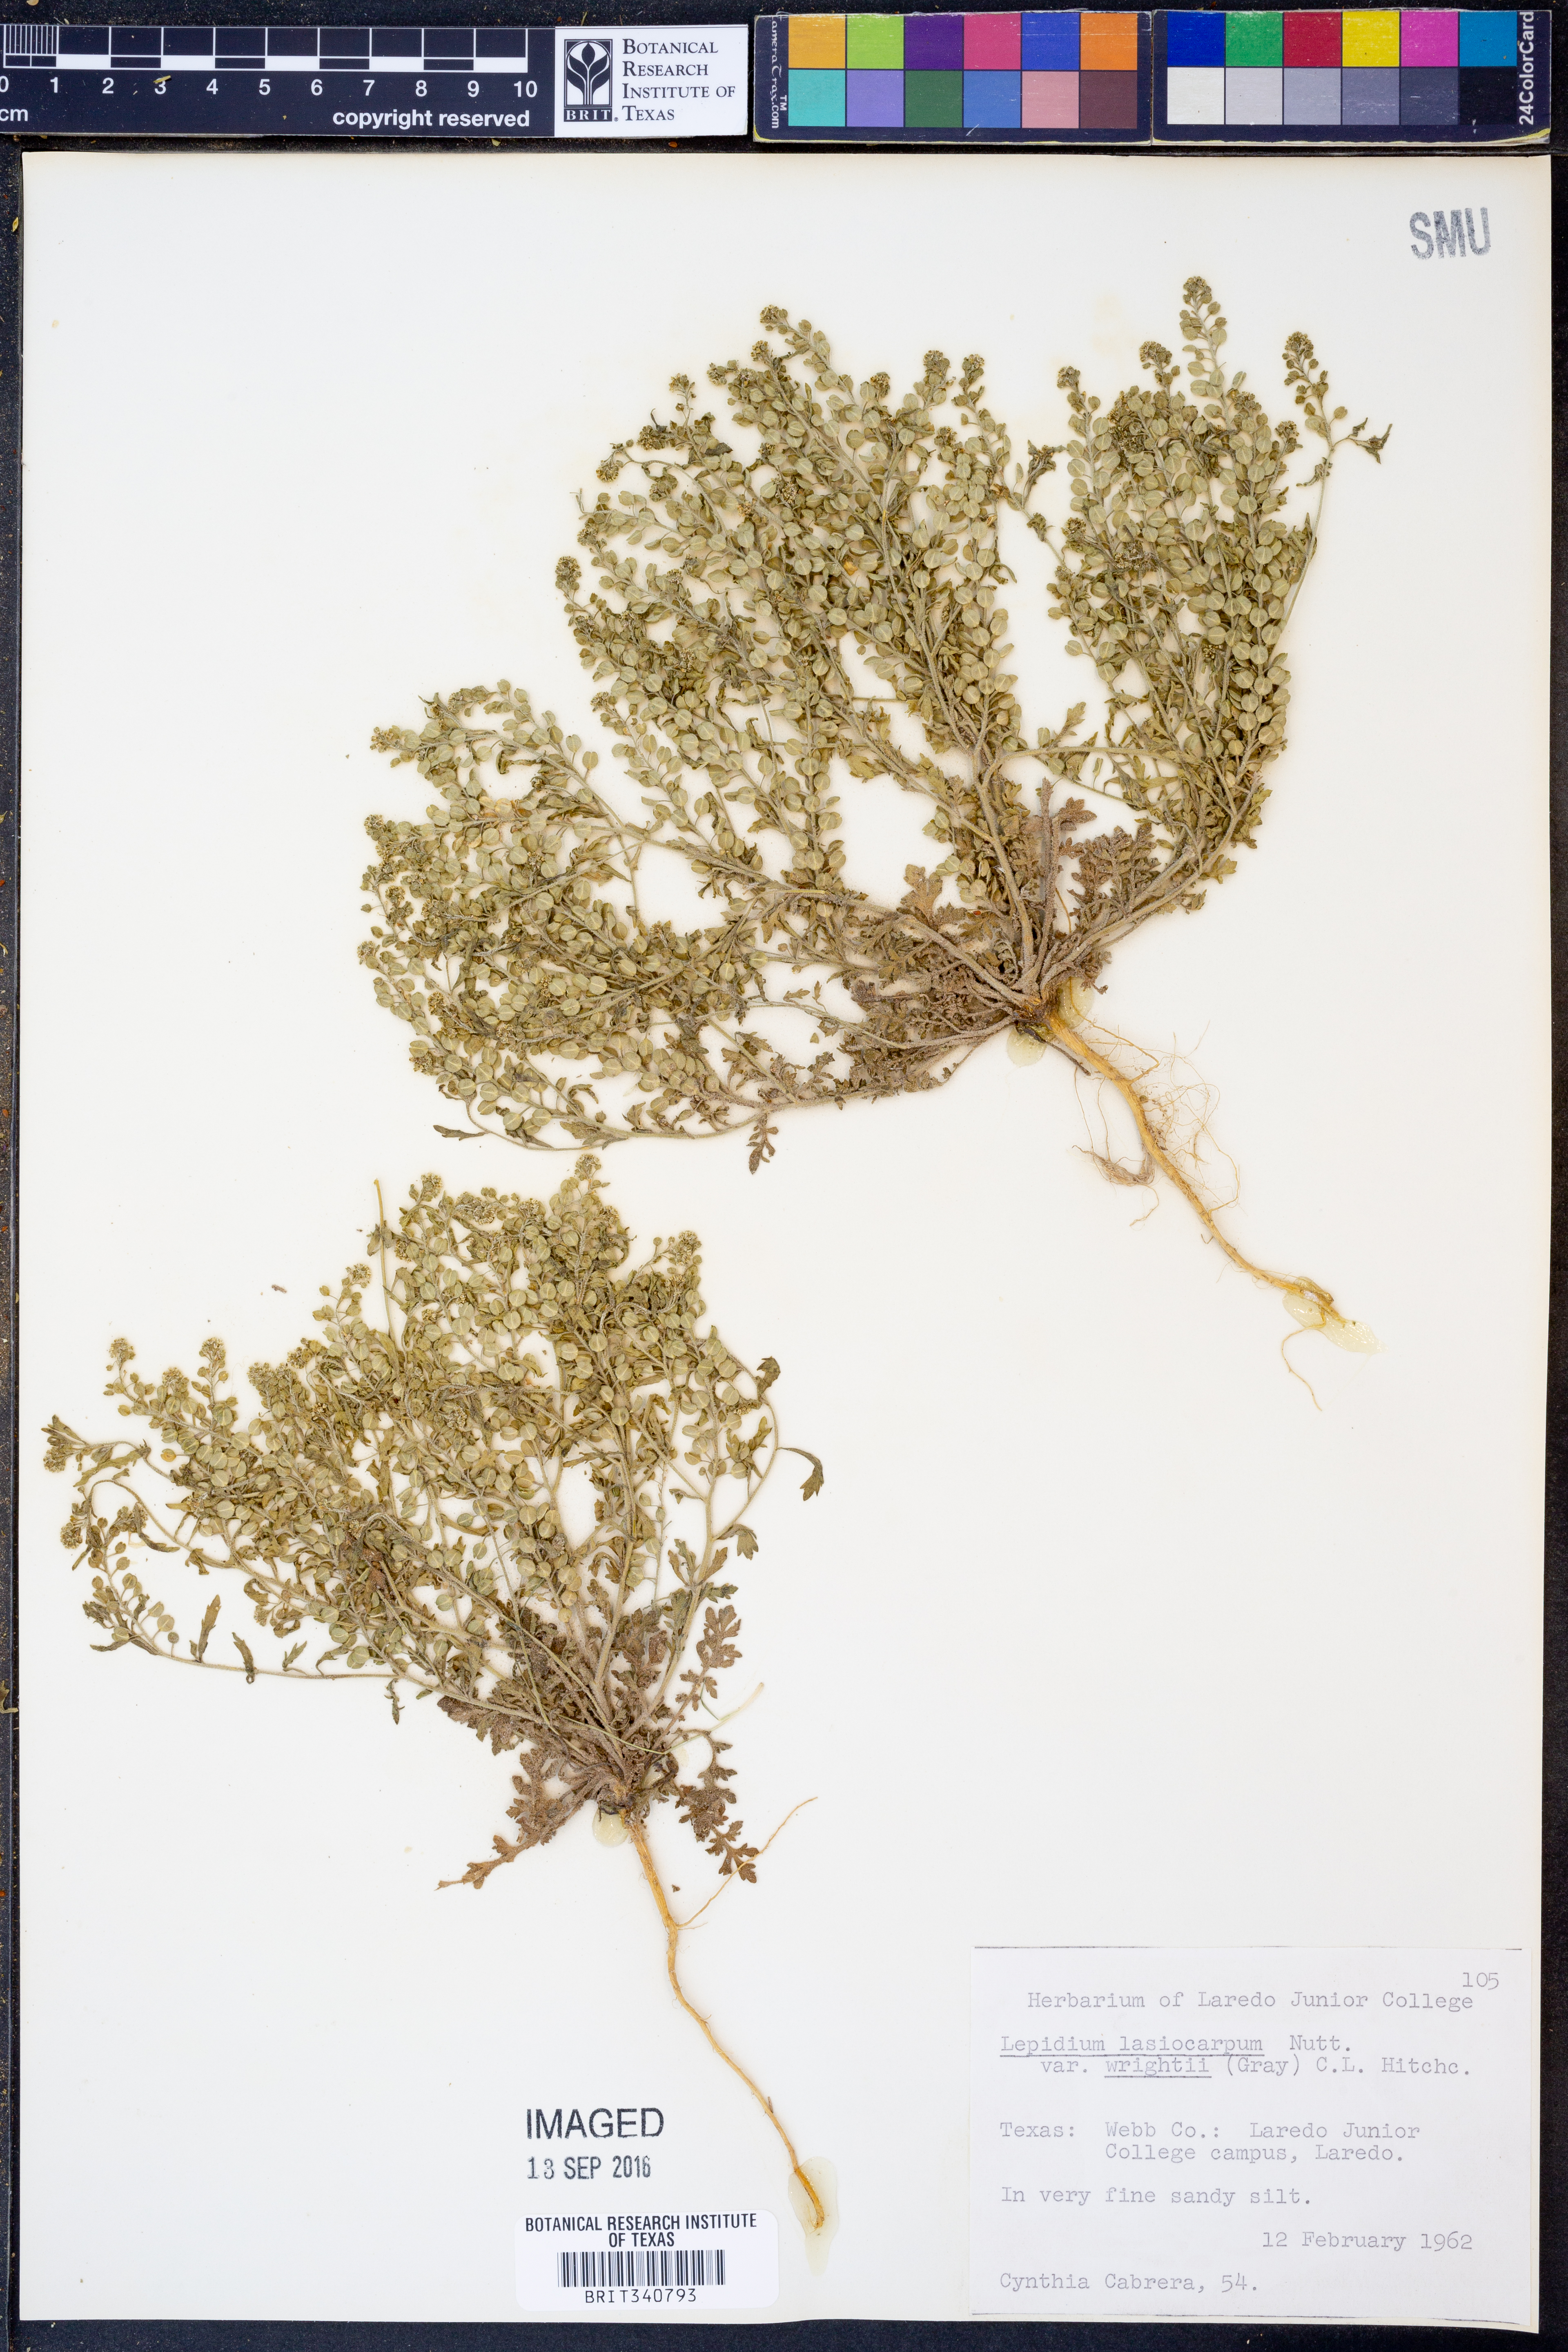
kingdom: Plantae
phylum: Tracheophyta
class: Magnoliopsida
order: Brassicales
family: Brassicaceae
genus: Lepidium
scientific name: Lepidium lasiocarpum
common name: Hairy-pod pepperwort
